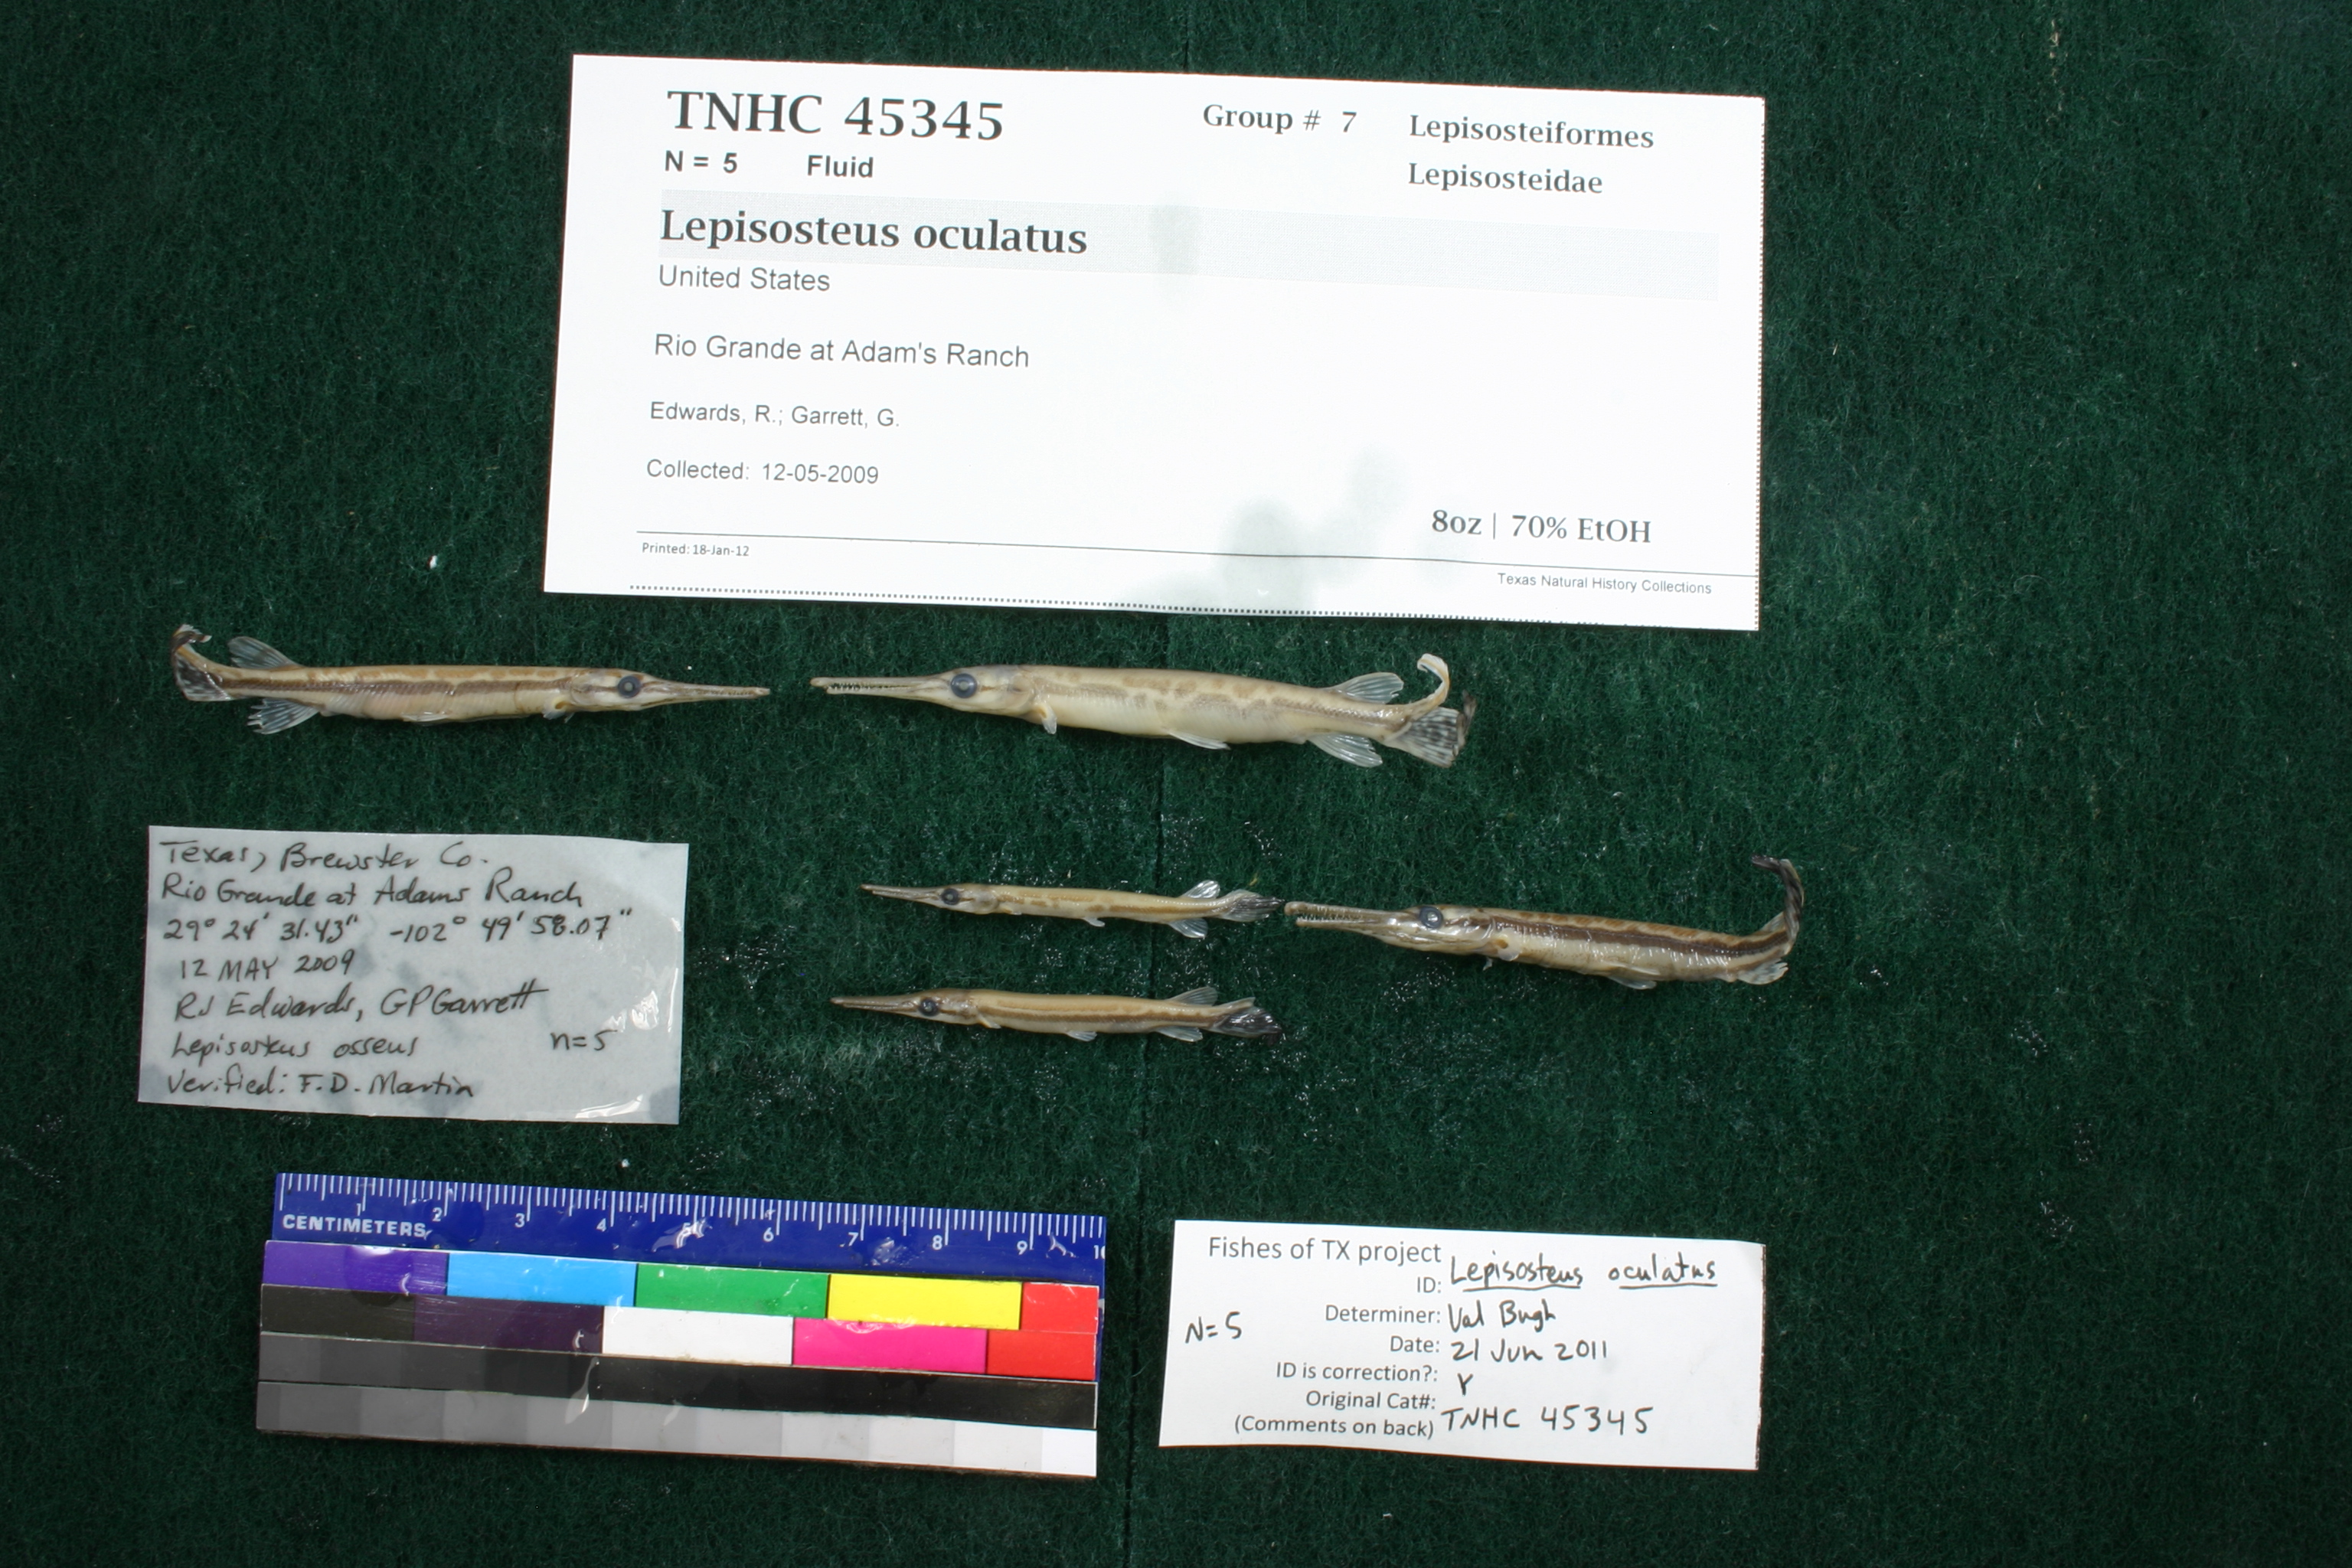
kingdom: Animalia
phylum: Chordata
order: Lepisosteiformes
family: Lepisosteidae
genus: Lepisosteus
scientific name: Lepisosteus oculatus
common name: Spotted gar
